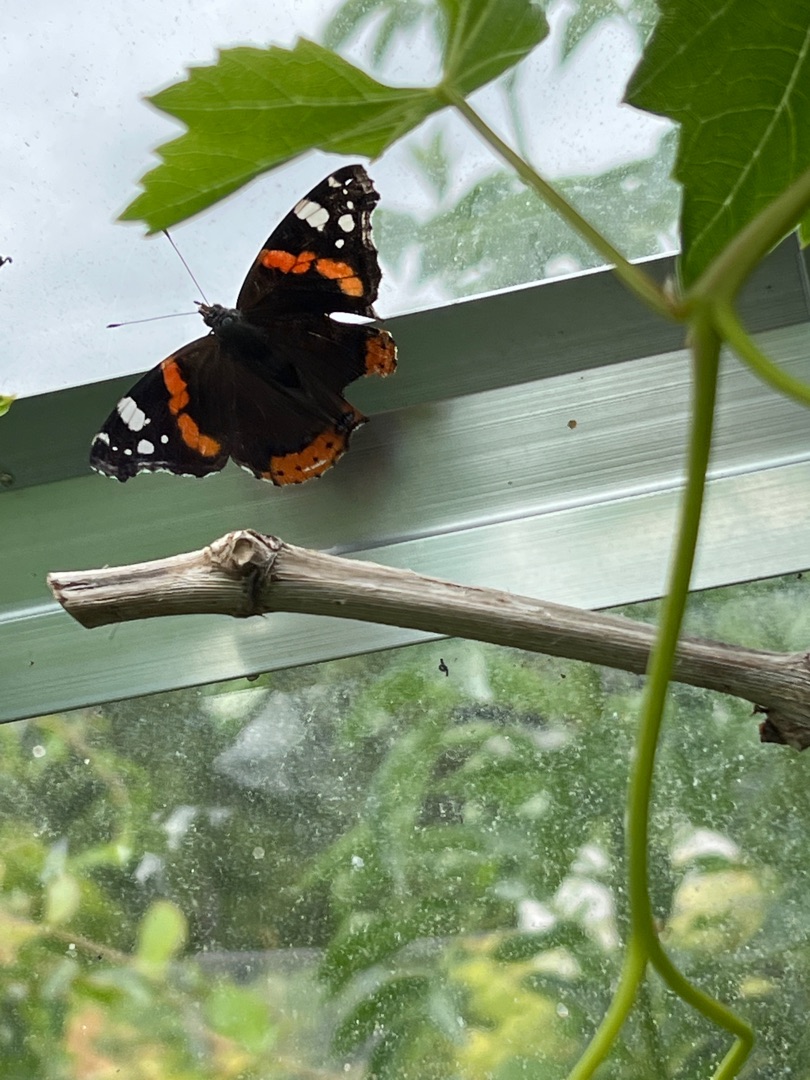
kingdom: Animalia
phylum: Arthropoda
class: Insecta
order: Lepidoptera
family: Nymphalidae
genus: Vanessa
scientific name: Vanessa atalanta
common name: Admiral
